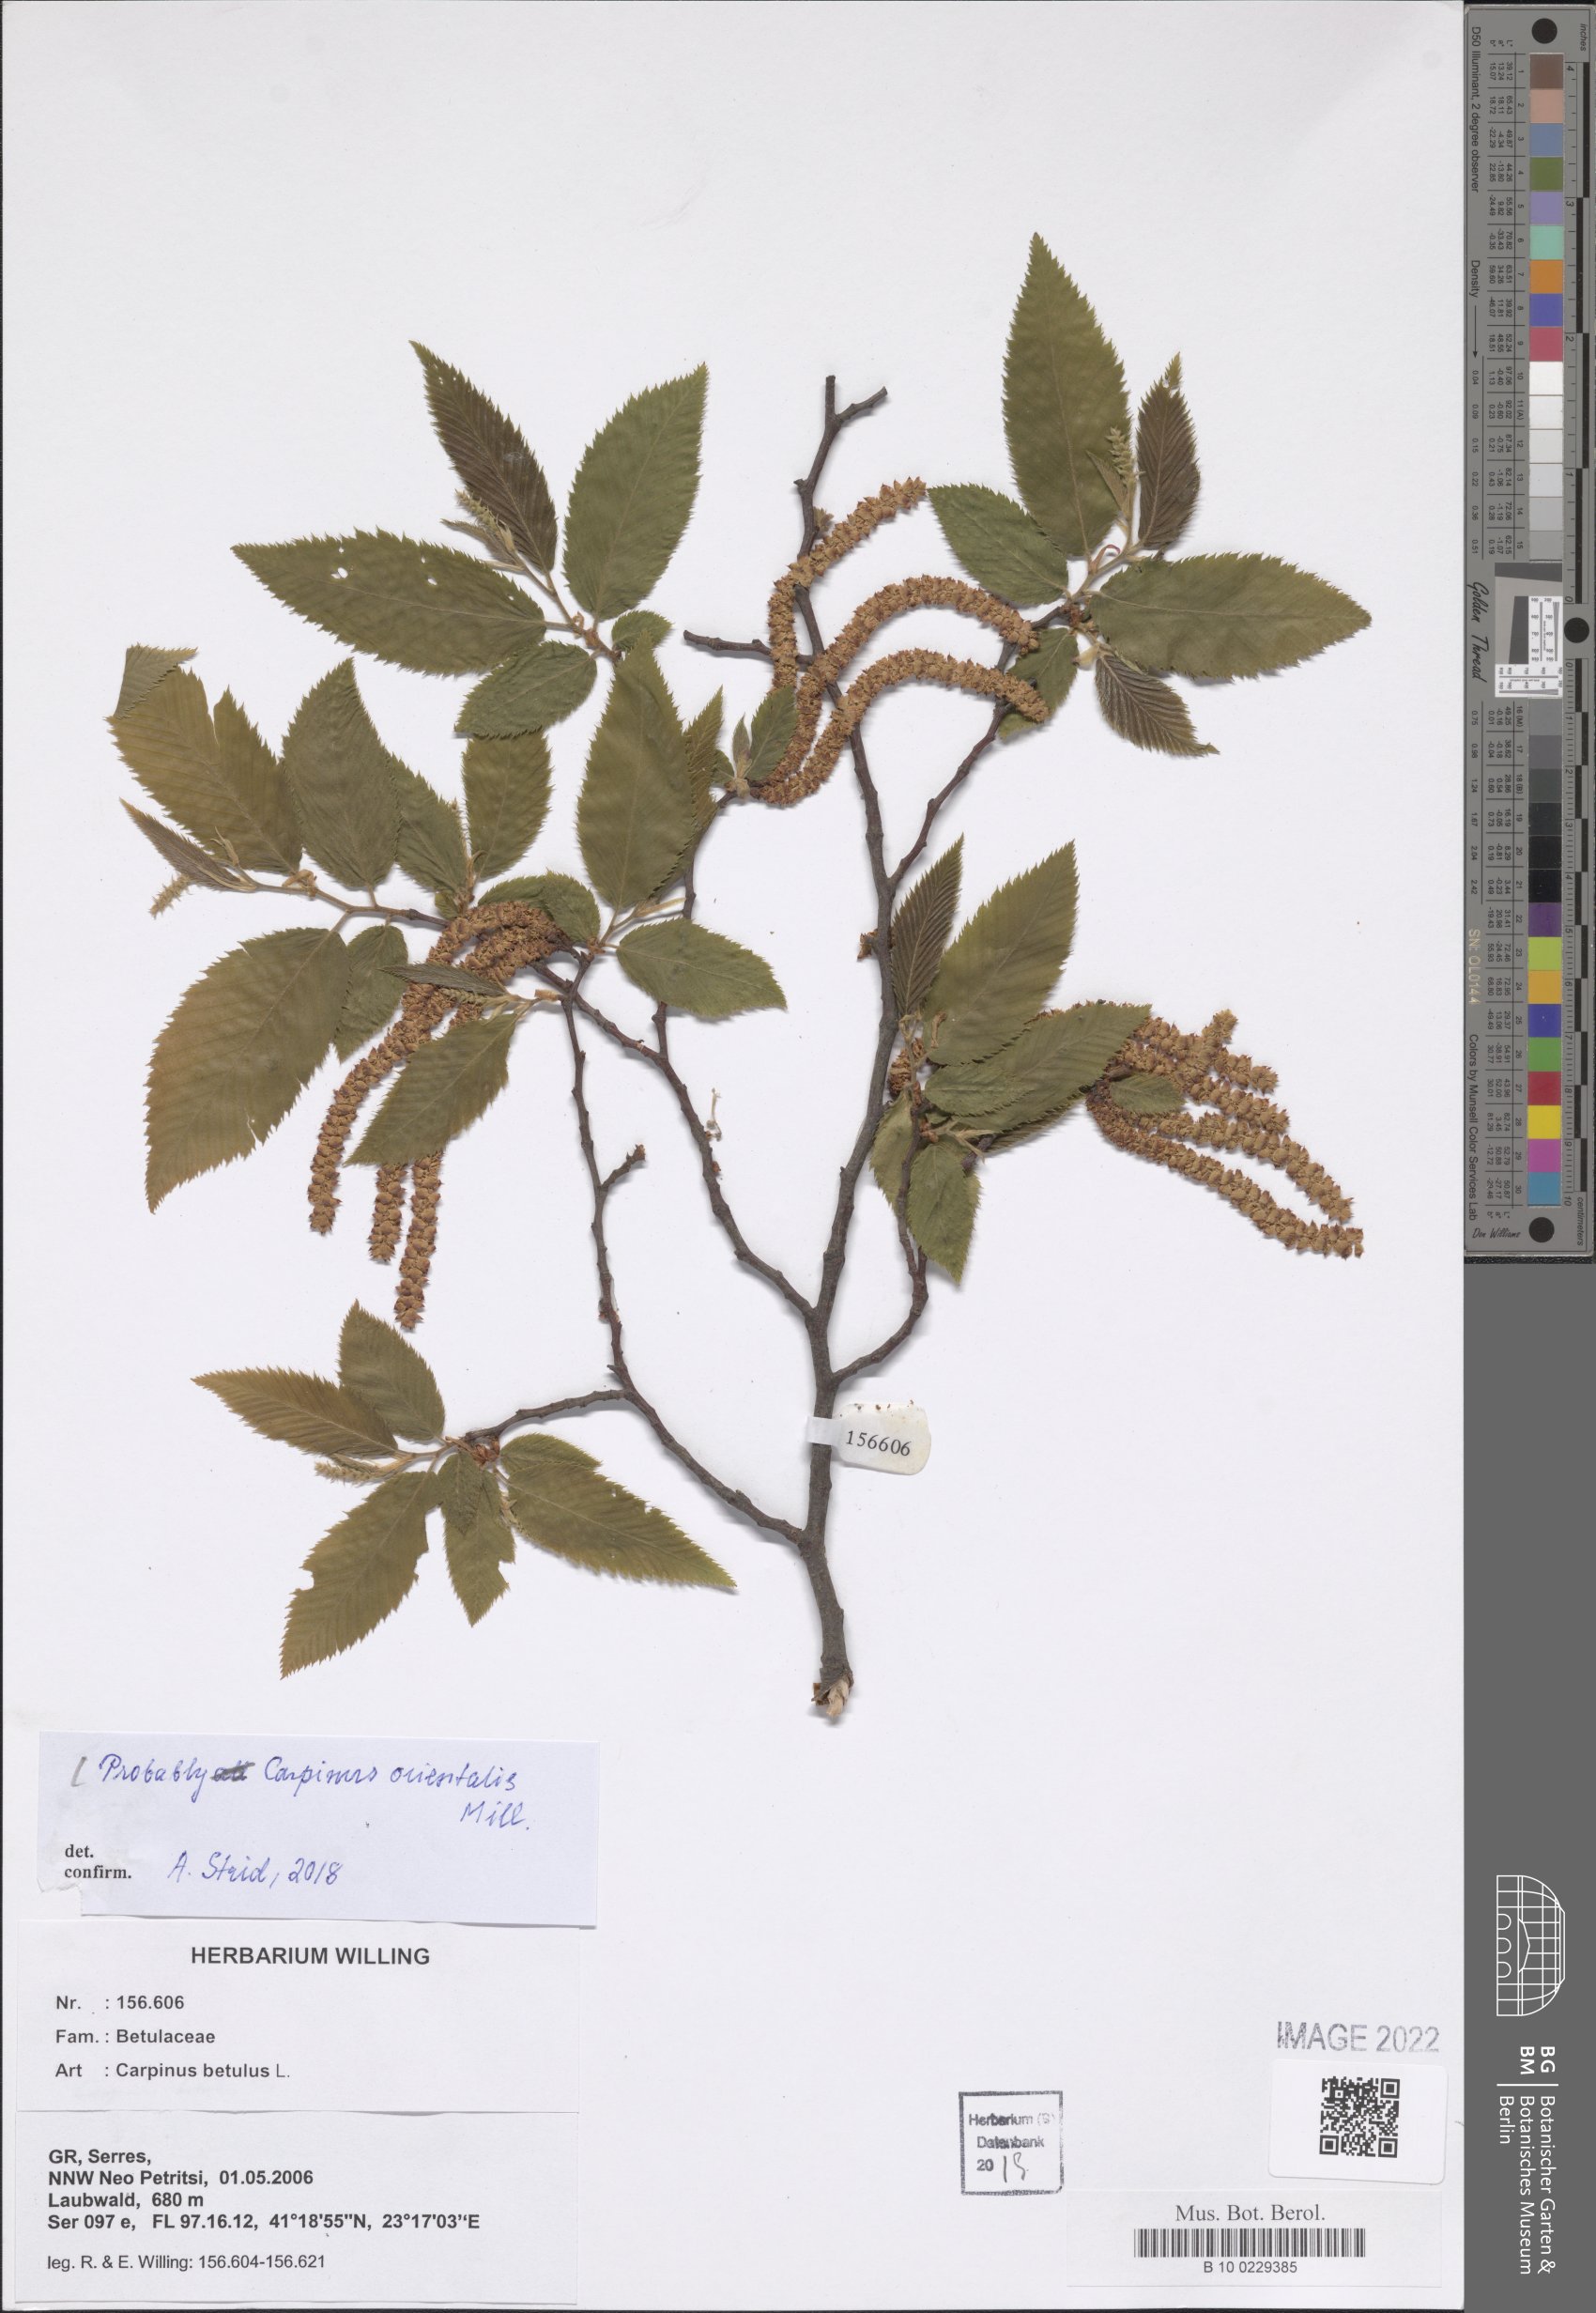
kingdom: Plantae
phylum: Tracheophyta
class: Magnoliopsida
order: Fagales
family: Betulaceae
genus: Carpinus
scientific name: Carpinus orientalis
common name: Eastern hornbeam
